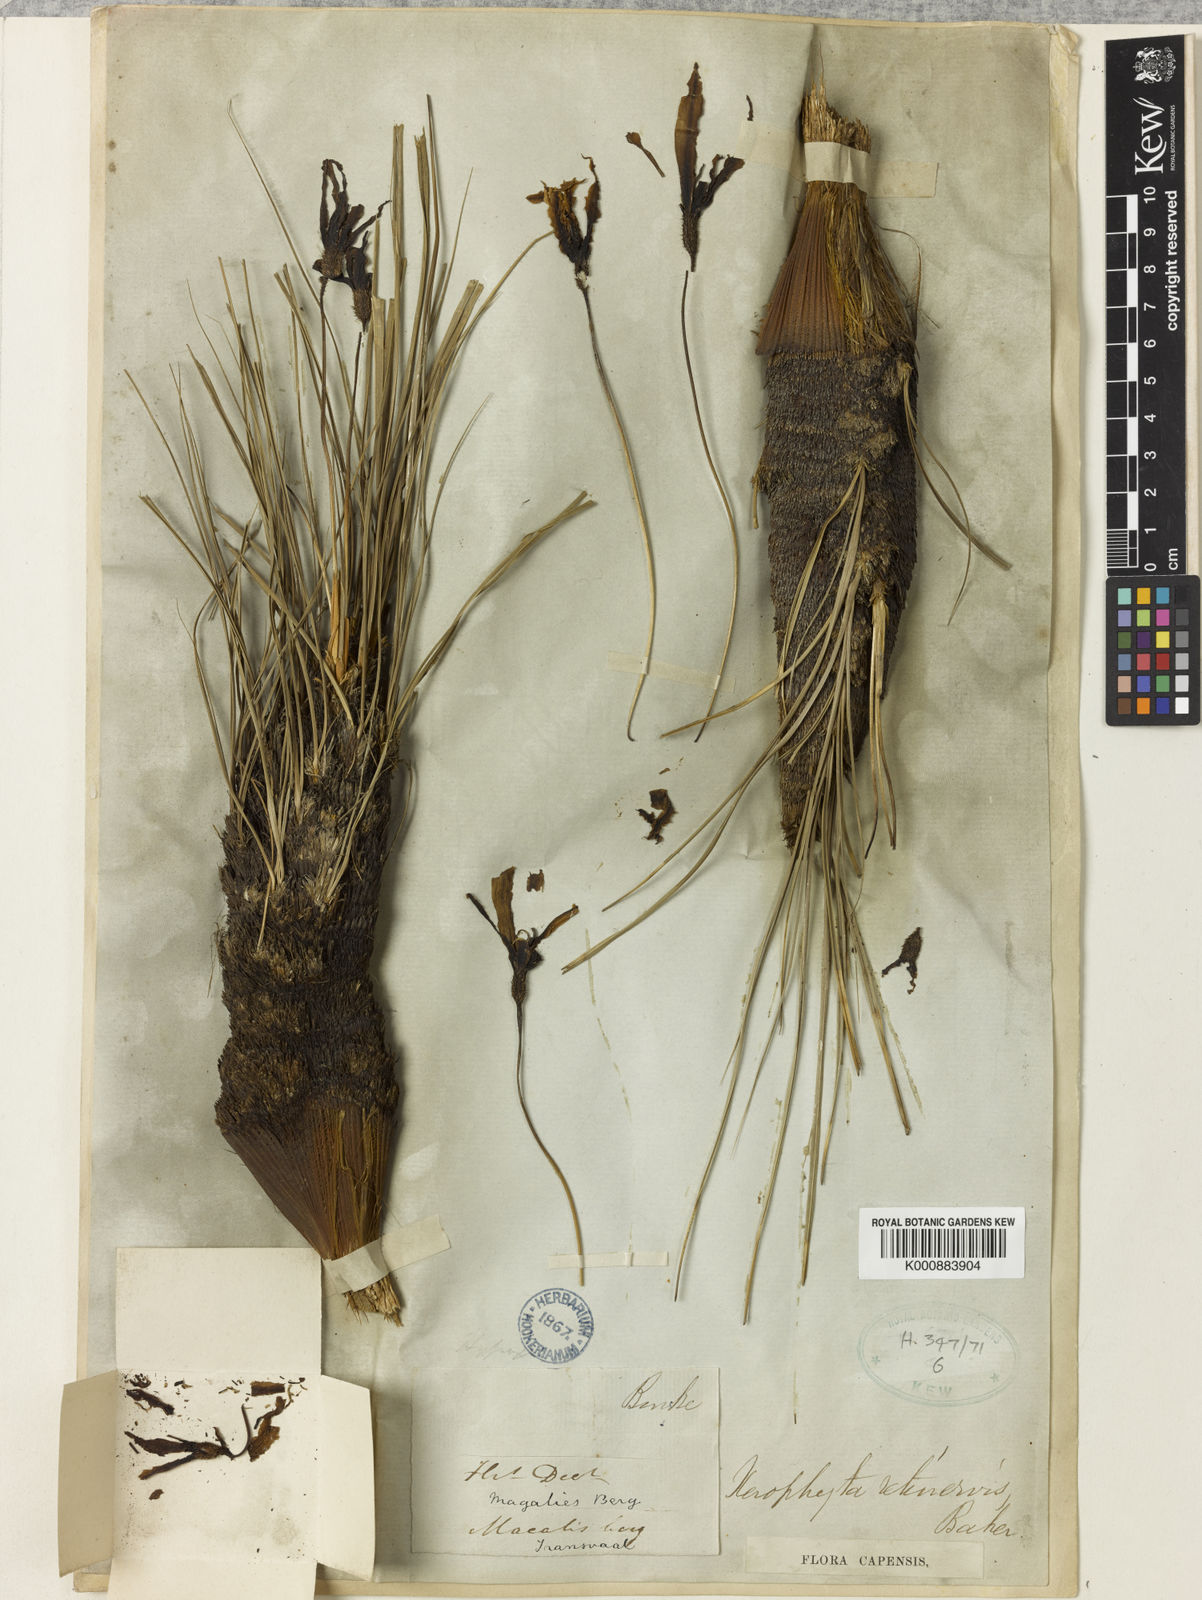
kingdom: Plantae
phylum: Tracheophyta
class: Liliopsida
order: Pandanales
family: Velloziaceae
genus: Xerophyta
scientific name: Xerophyta retinervis
